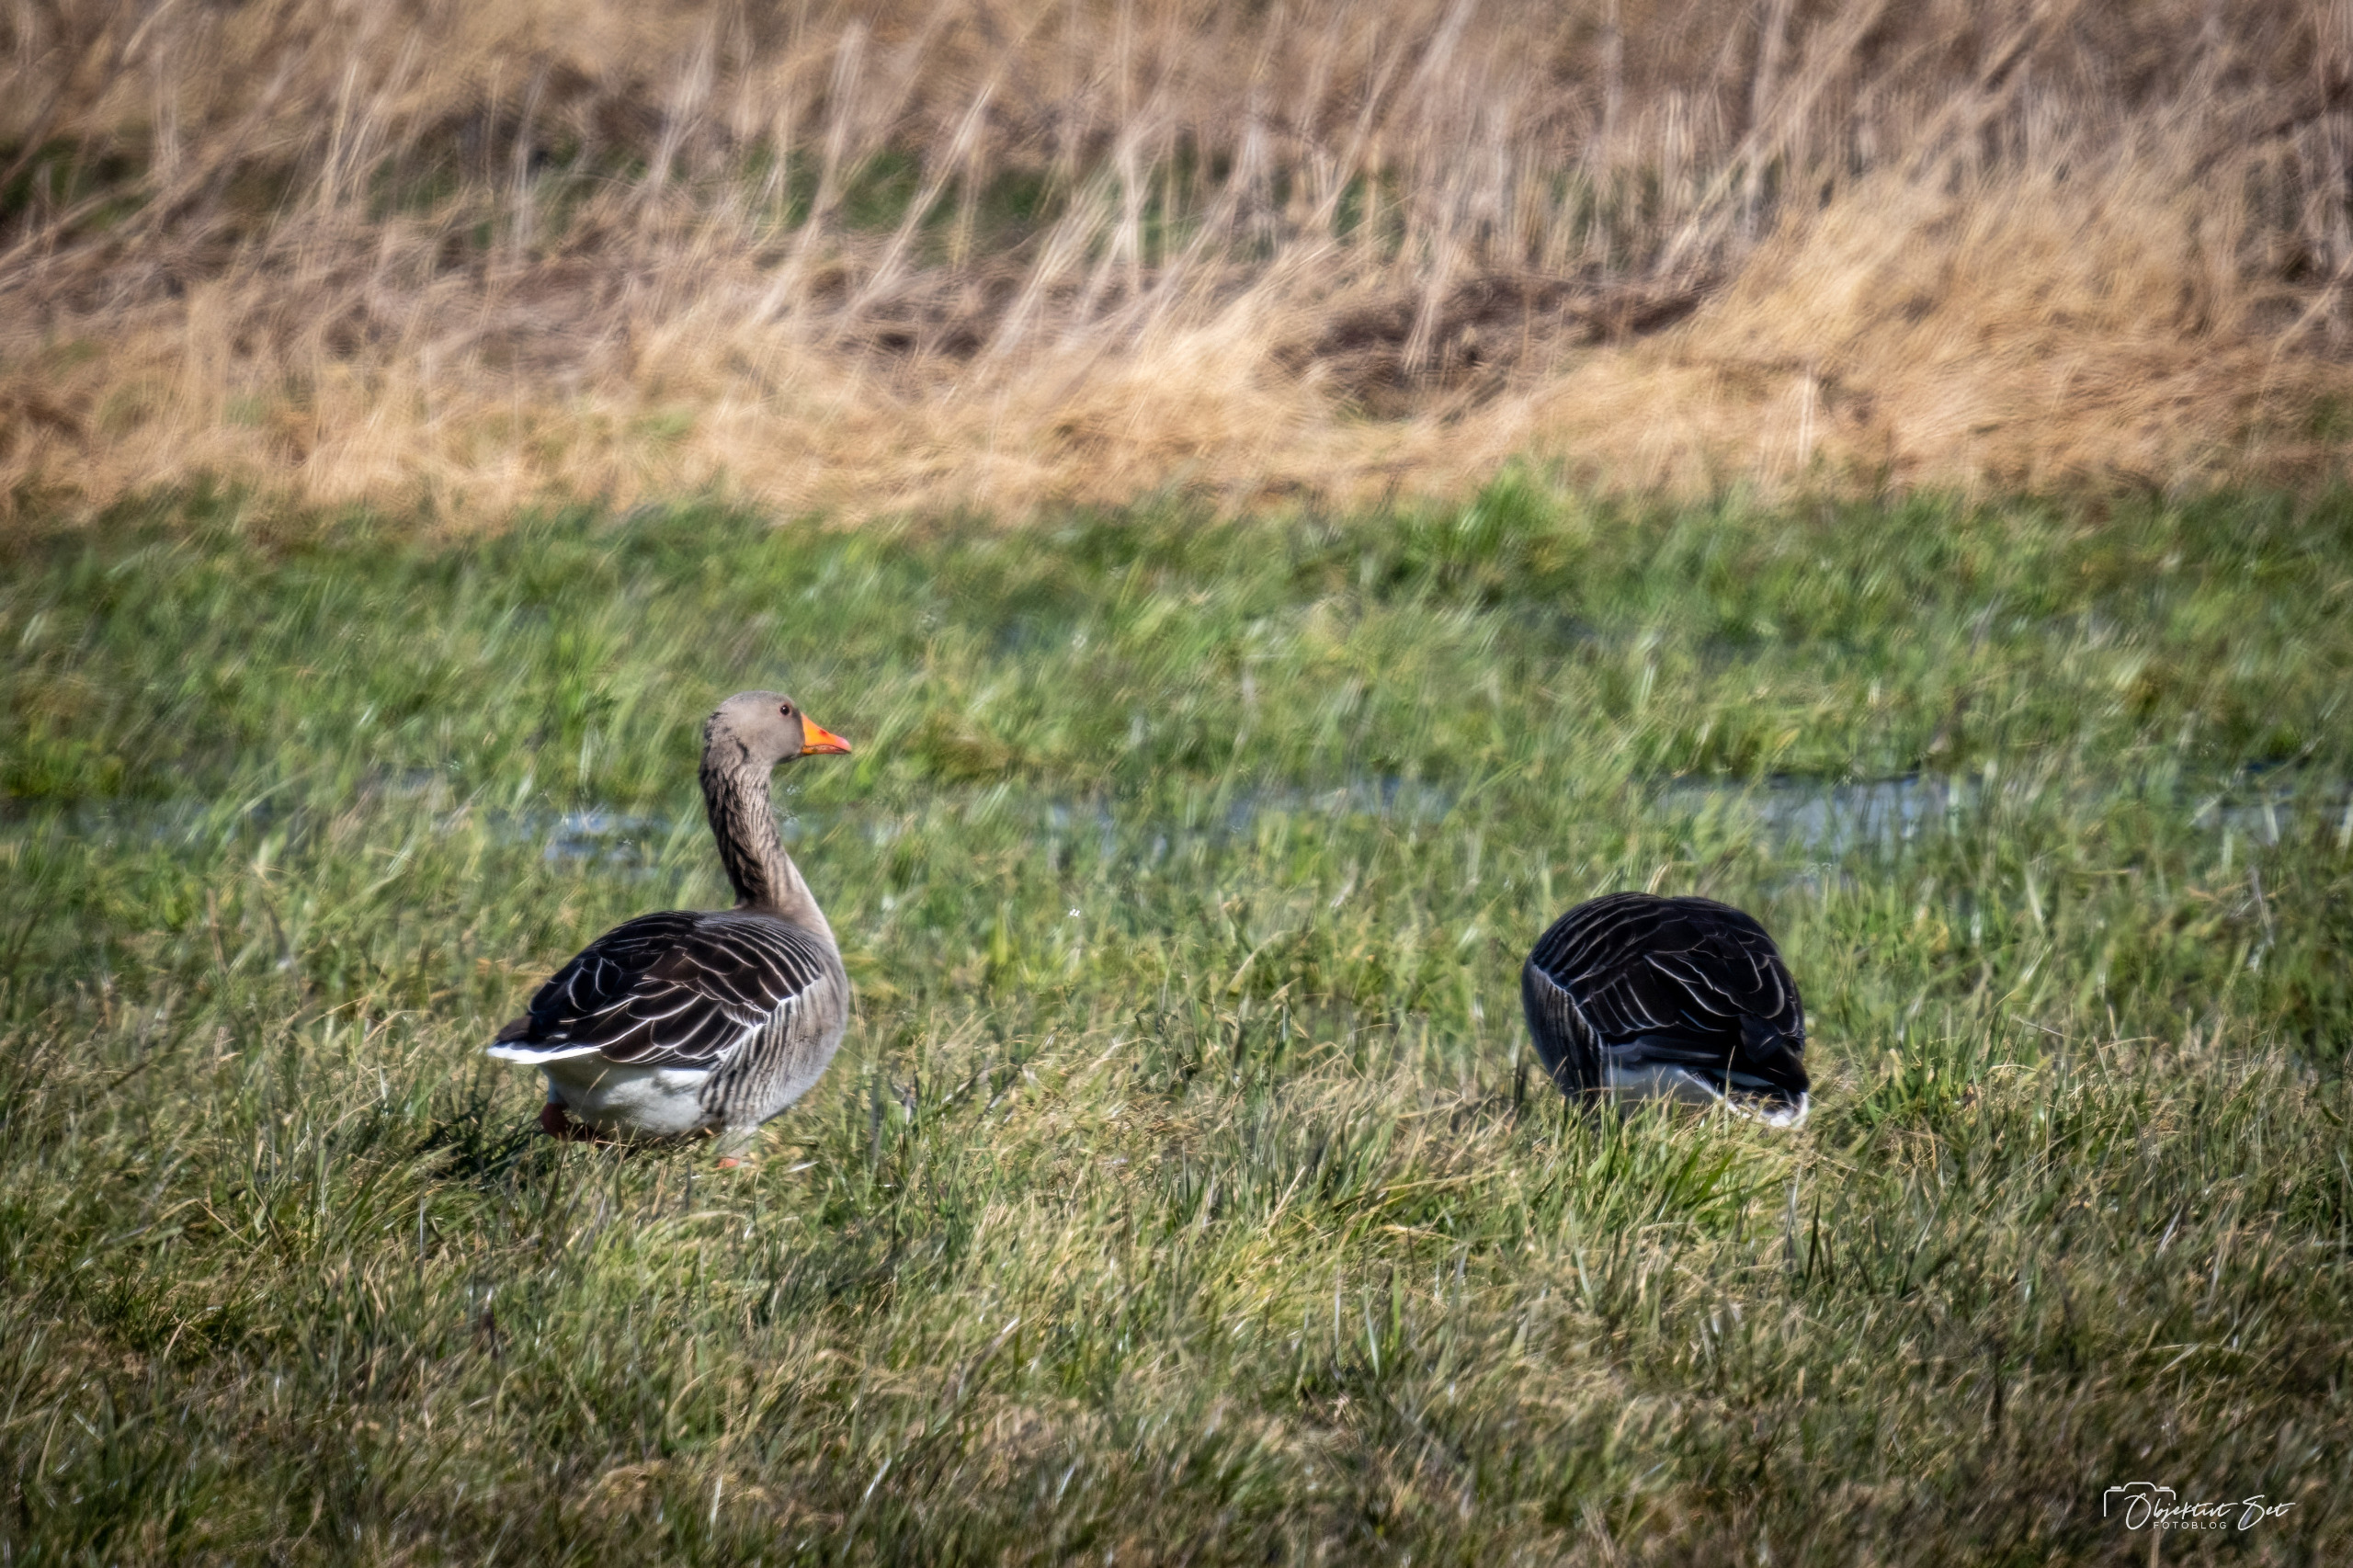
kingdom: Animalia
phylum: Chordata
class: Aves
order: Anseriformes
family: Anatidae
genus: Anser
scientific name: Anser anser
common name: Grågås
